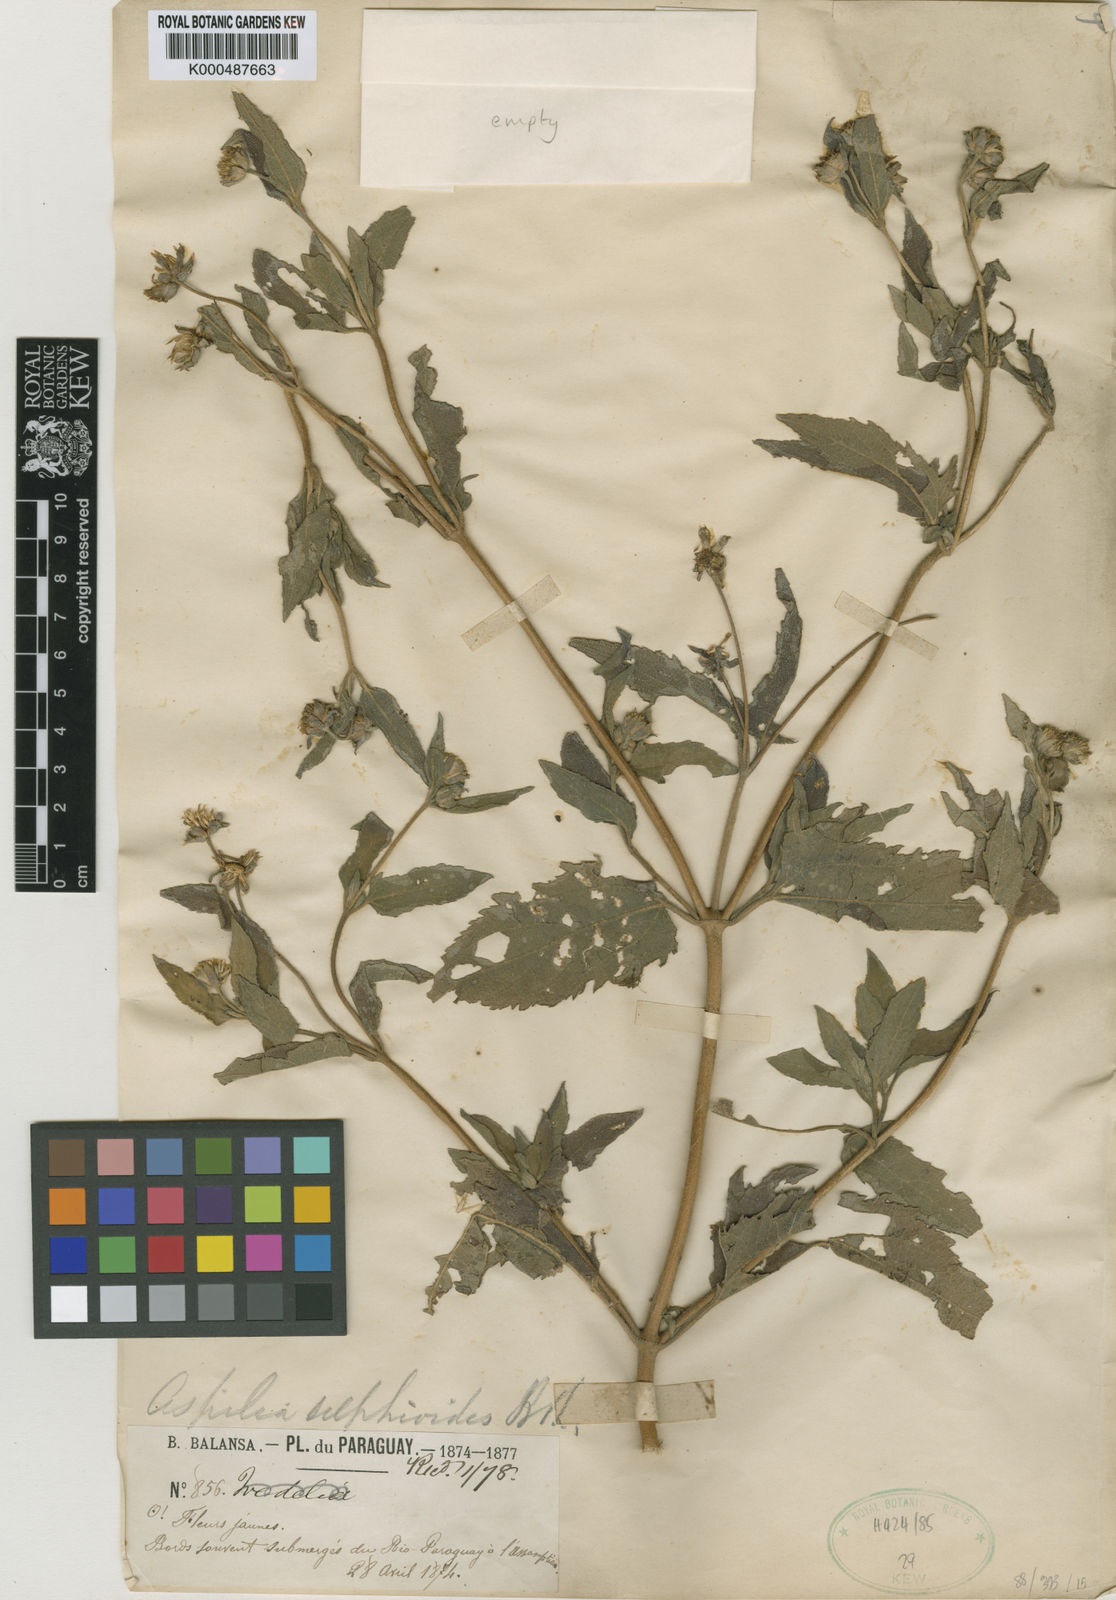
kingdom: Plantae
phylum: Tracheophyta
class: Magnoliopsida
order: Asterales
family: Asteraceae
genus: Wedelia
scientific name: Wedelia silphioides
